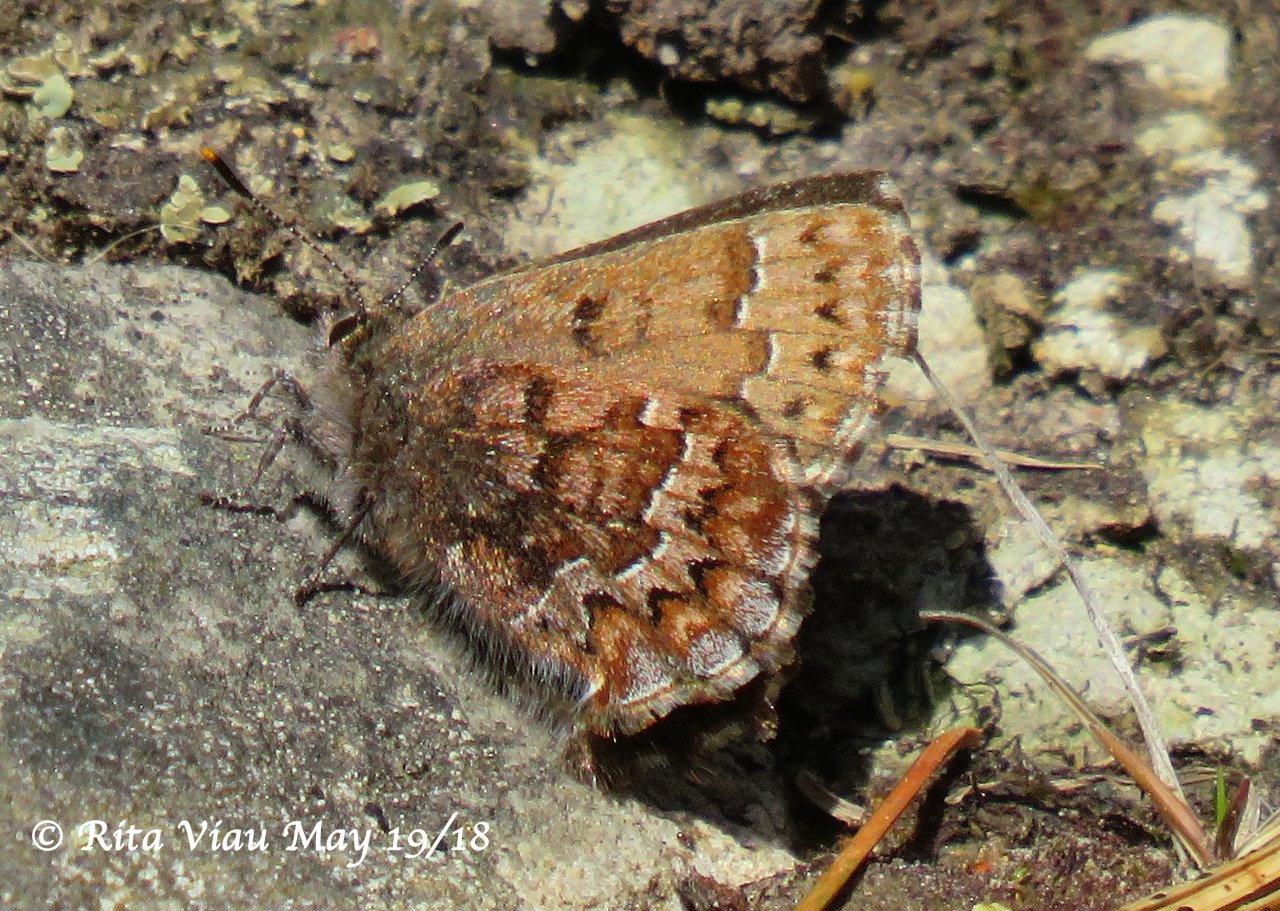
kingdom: Animalia
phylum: Arthropoda
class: Insecta
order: Lepidoptera
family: Lycaenidae
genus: Incisalia
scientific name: Incisalia niphon
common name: Eastern Pine Elfin
